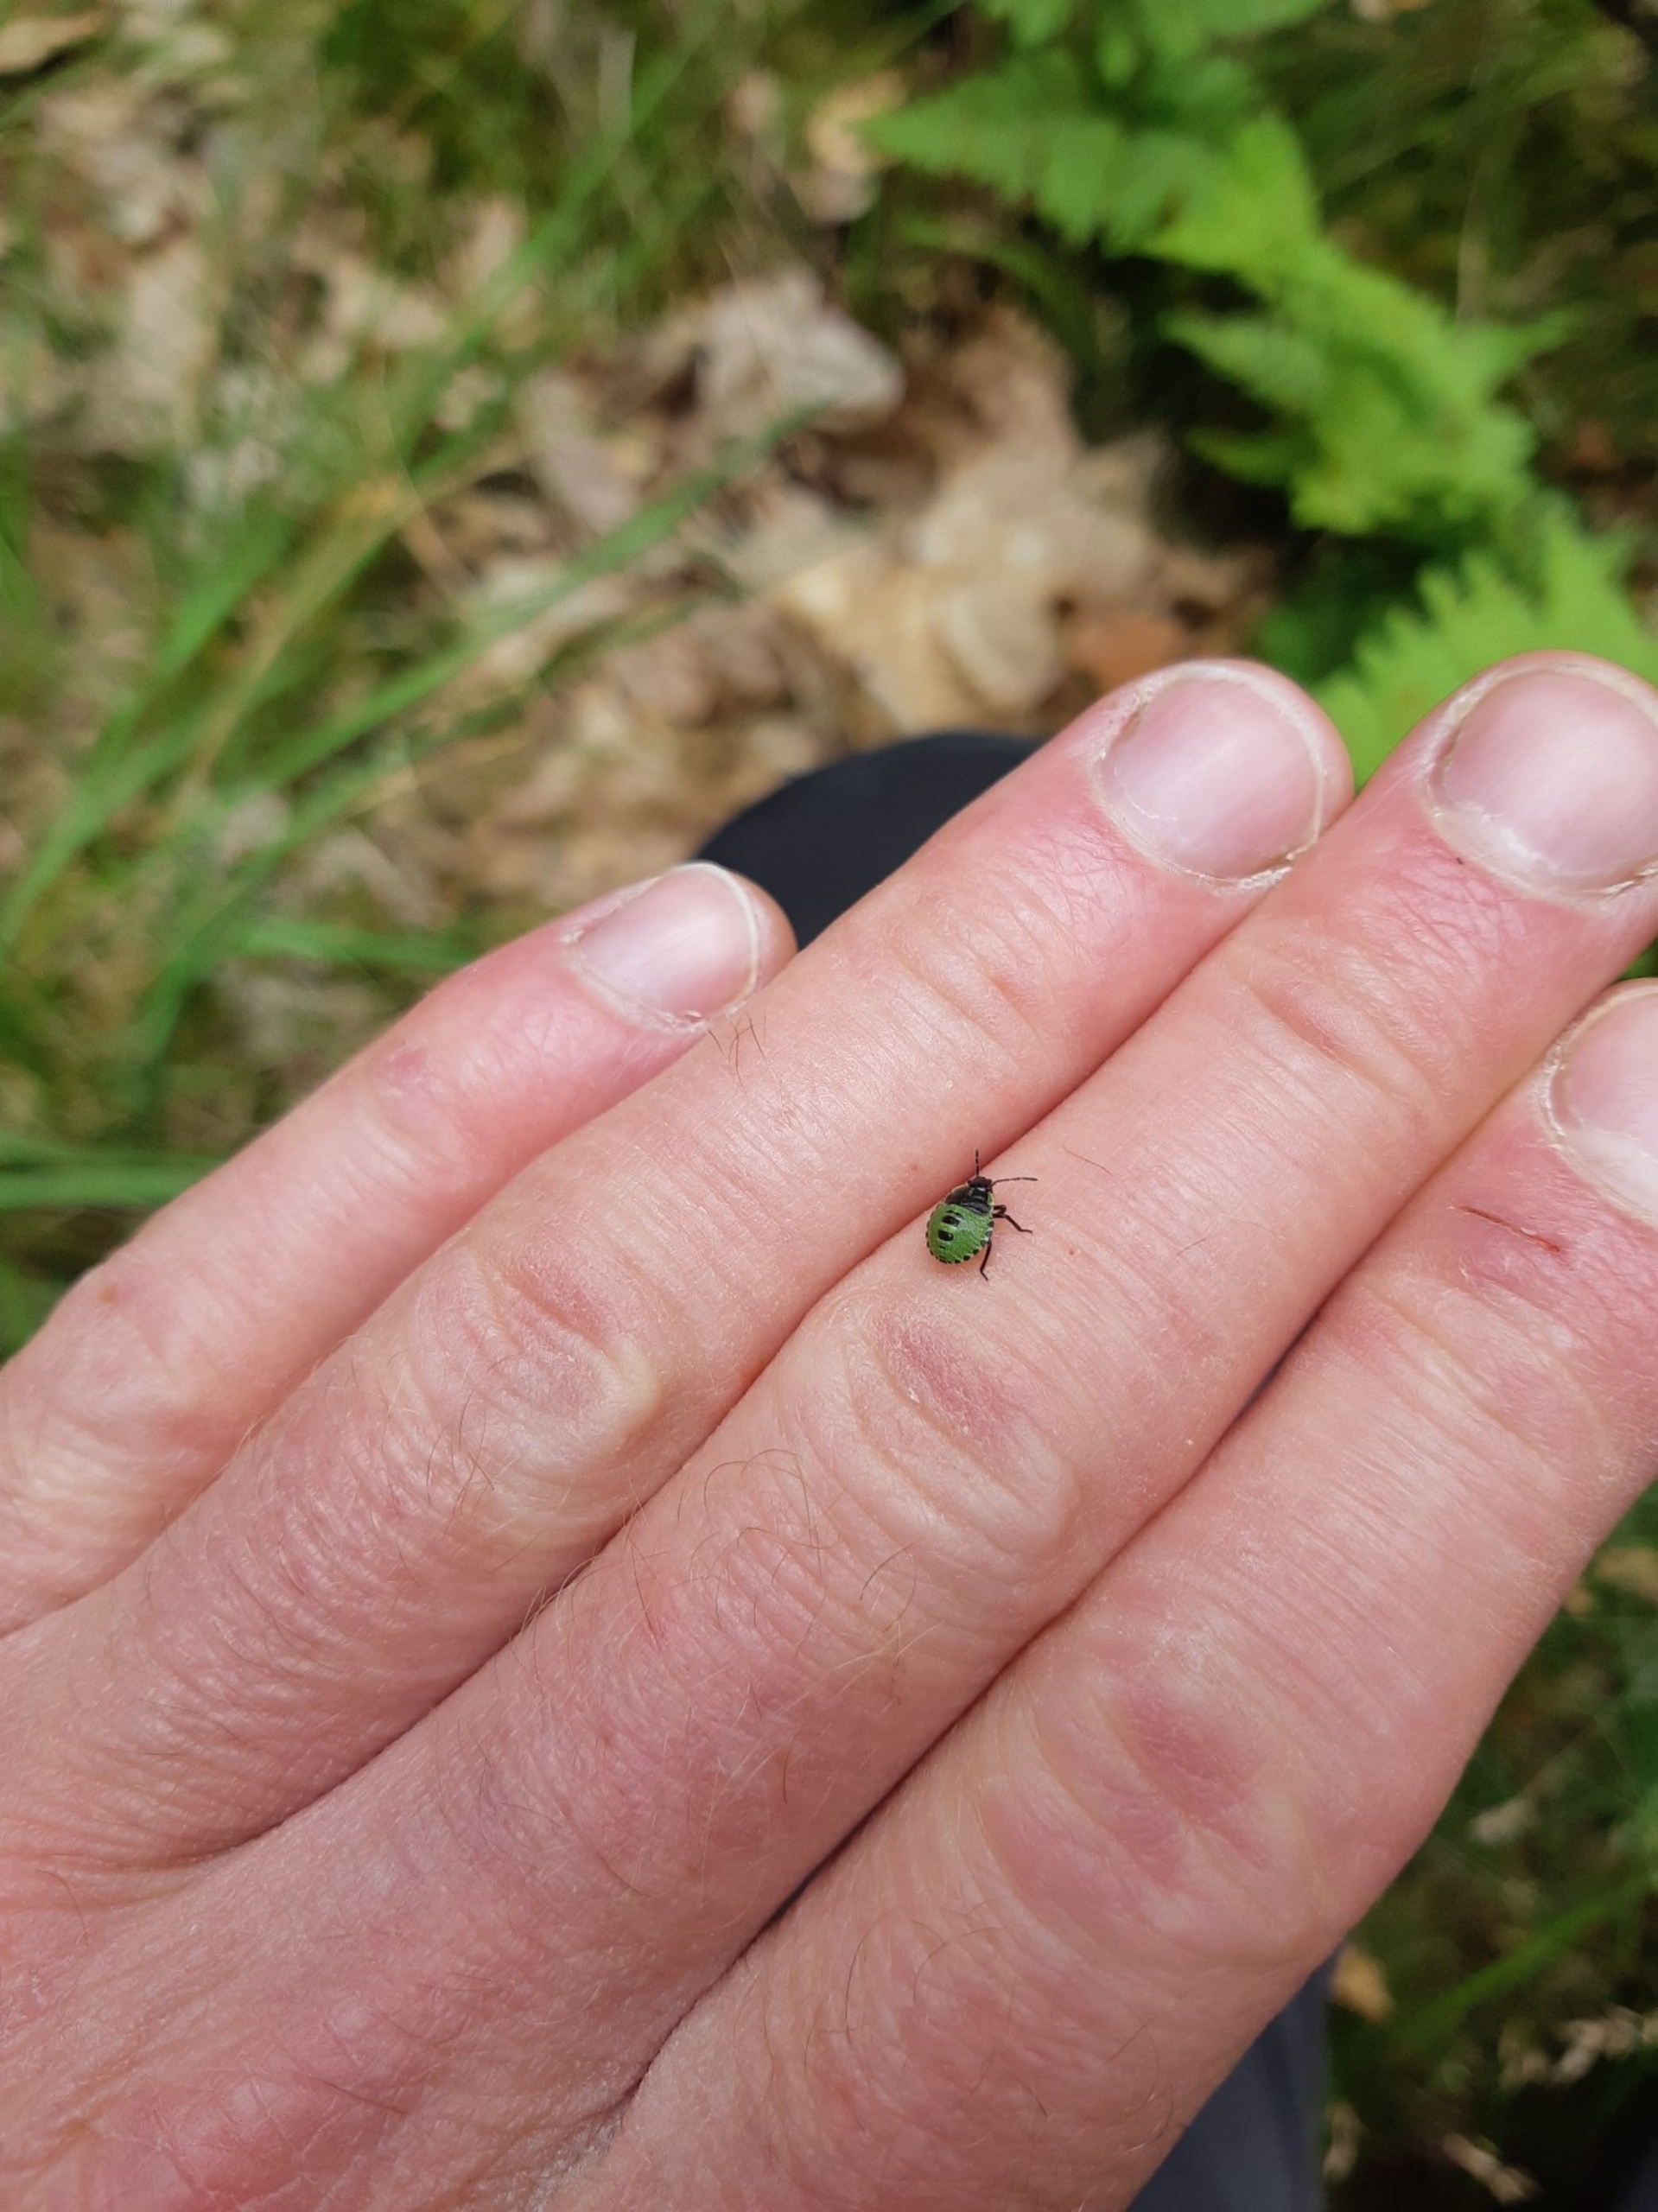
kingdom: Animalia
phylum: Arthropoda
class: Insecta
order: Hemiptera
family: Pentatomidae
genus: Palomena
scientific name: Palomena prasina
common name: Grøn bredtæge
